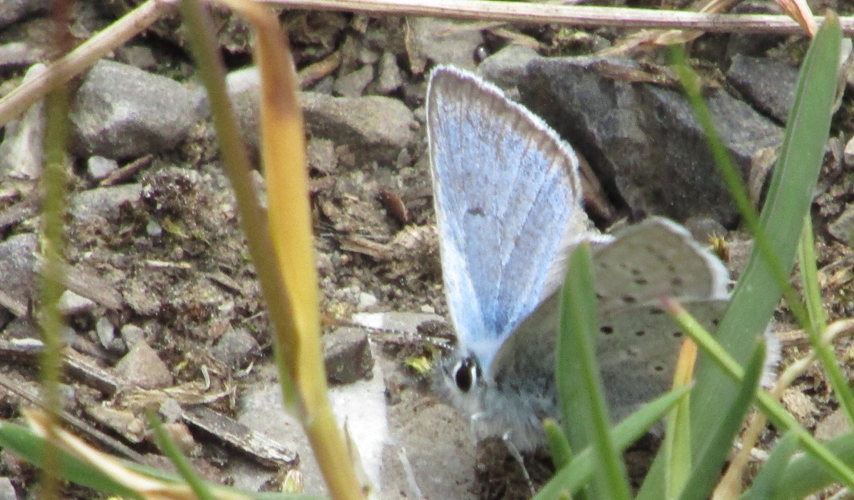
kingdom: Animalia
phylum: Arthropoda
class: Insecta
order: Lepidoptera
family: Lycaenidae
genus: Glaucopsyche
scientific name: Glaucopsyche lygdamus
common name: Silvery Blue
